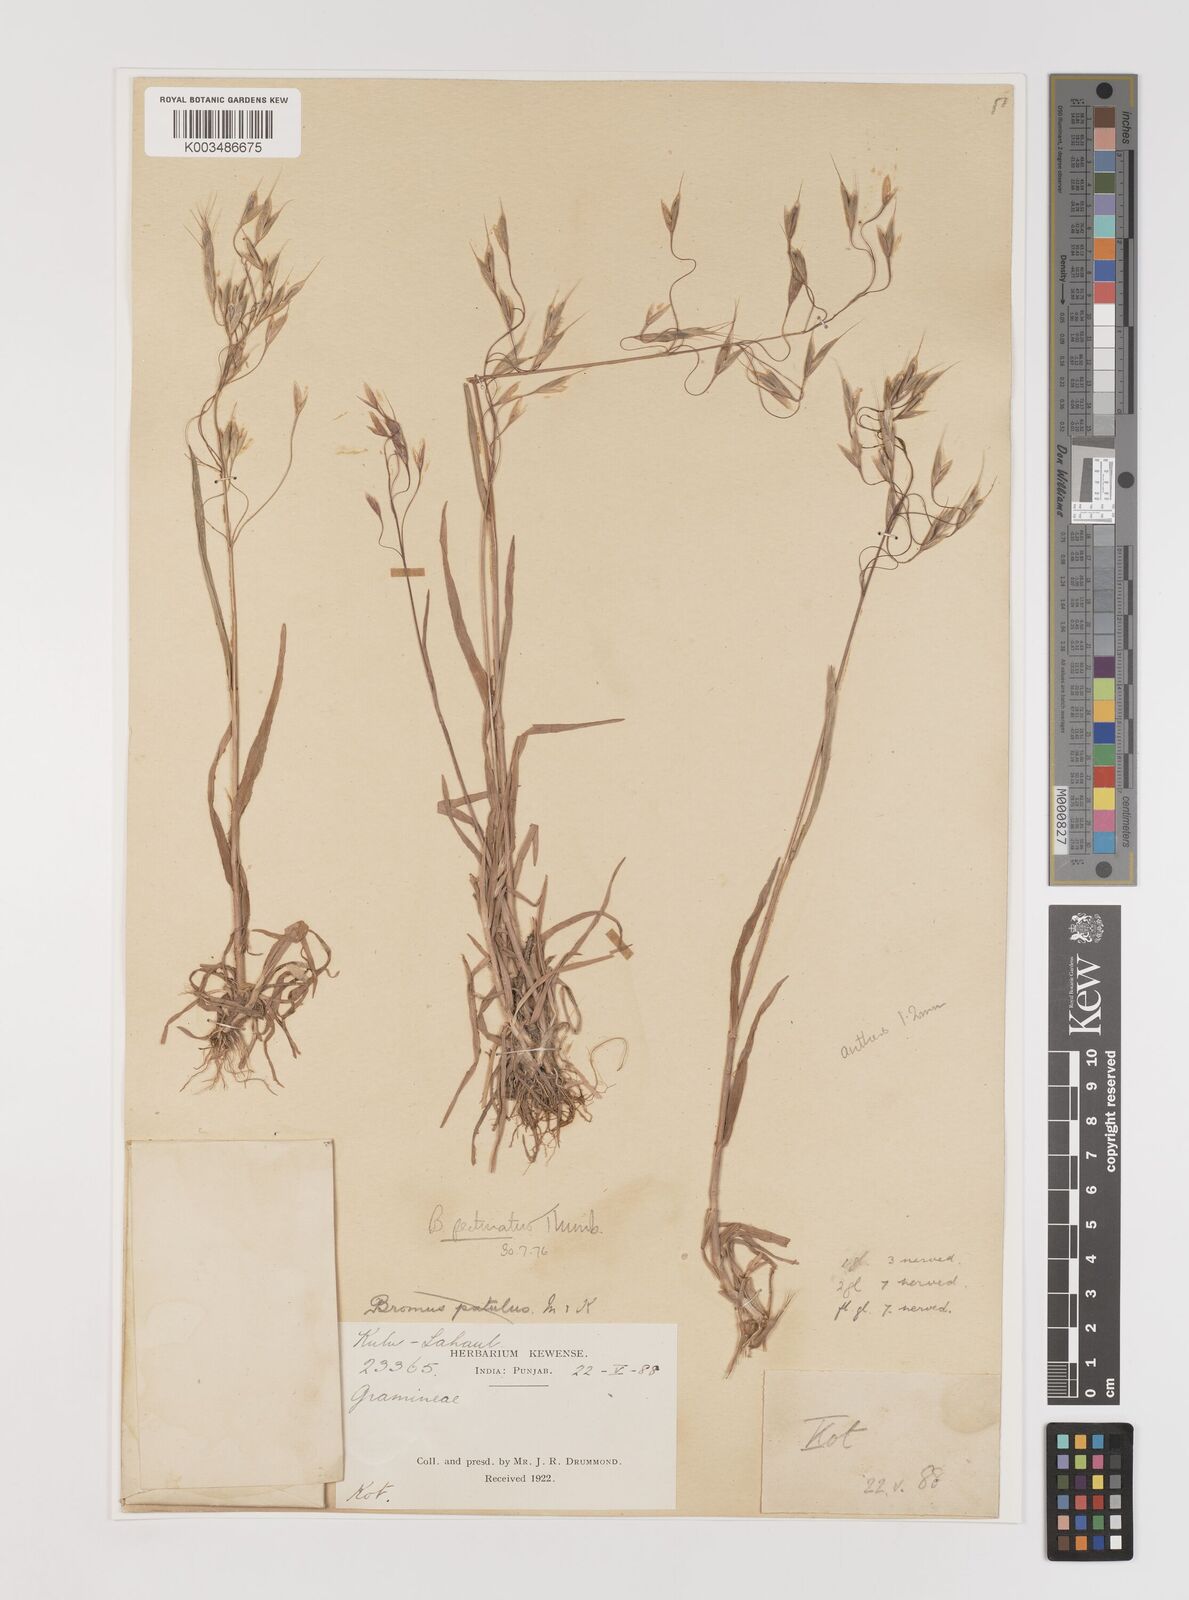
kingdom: Plantae
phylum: Tracheophyta
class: Liliopsida
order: Poales
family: Poaceae
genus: Bromus
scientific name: Bromus pectinatus
